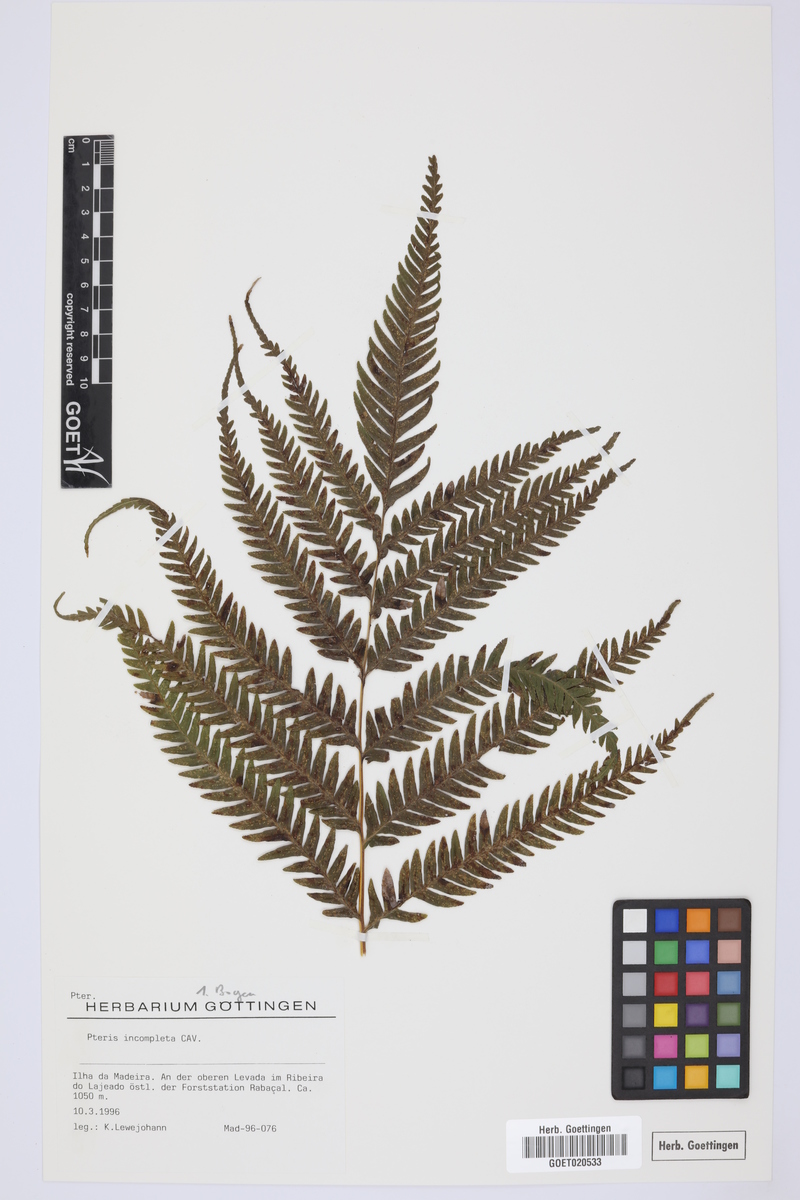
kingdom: Plantae
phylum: Tracheophyta
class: Polypodiopsida
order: Polypodiales
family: Pteridaceae
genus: Pteris
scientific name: Pteris incompleta
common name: Laurisilva brake
